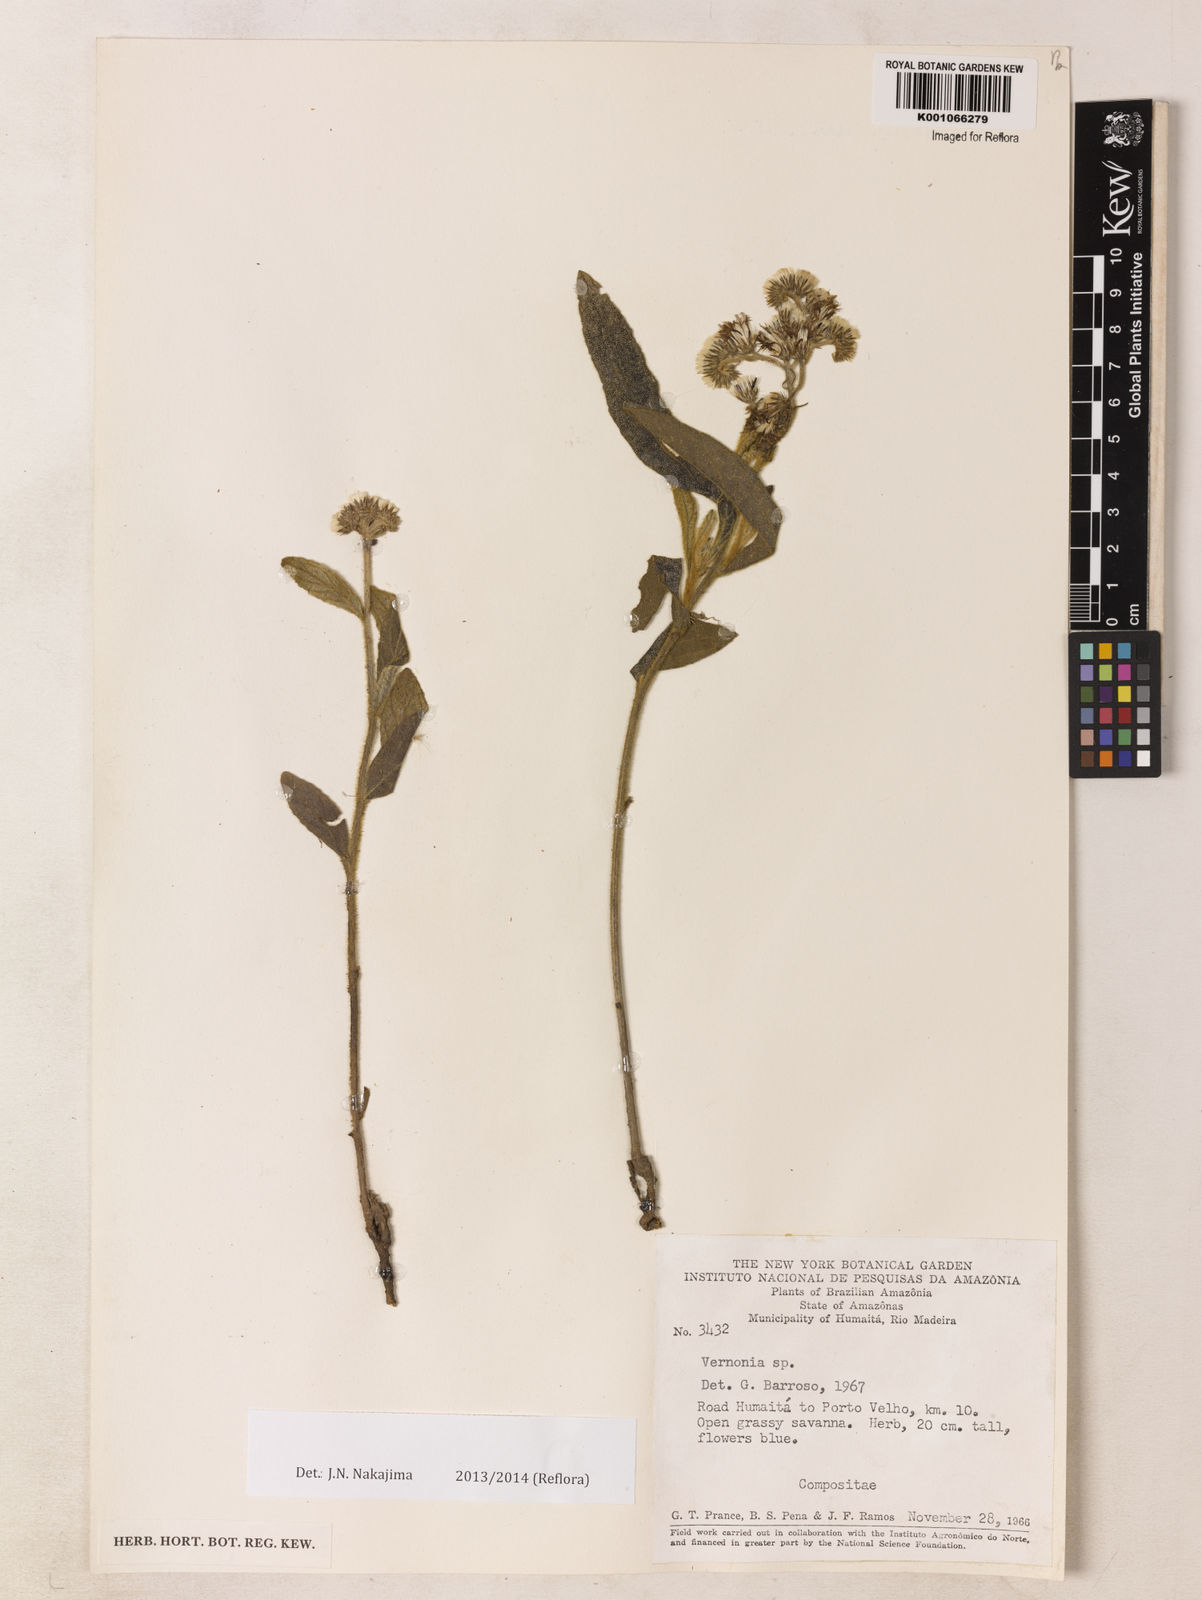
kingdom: Plantae
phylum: Tracheophyta
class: Magnoliopsida
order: Asterales
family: Asteraceae
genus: Vernonia
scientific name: Vernonia
